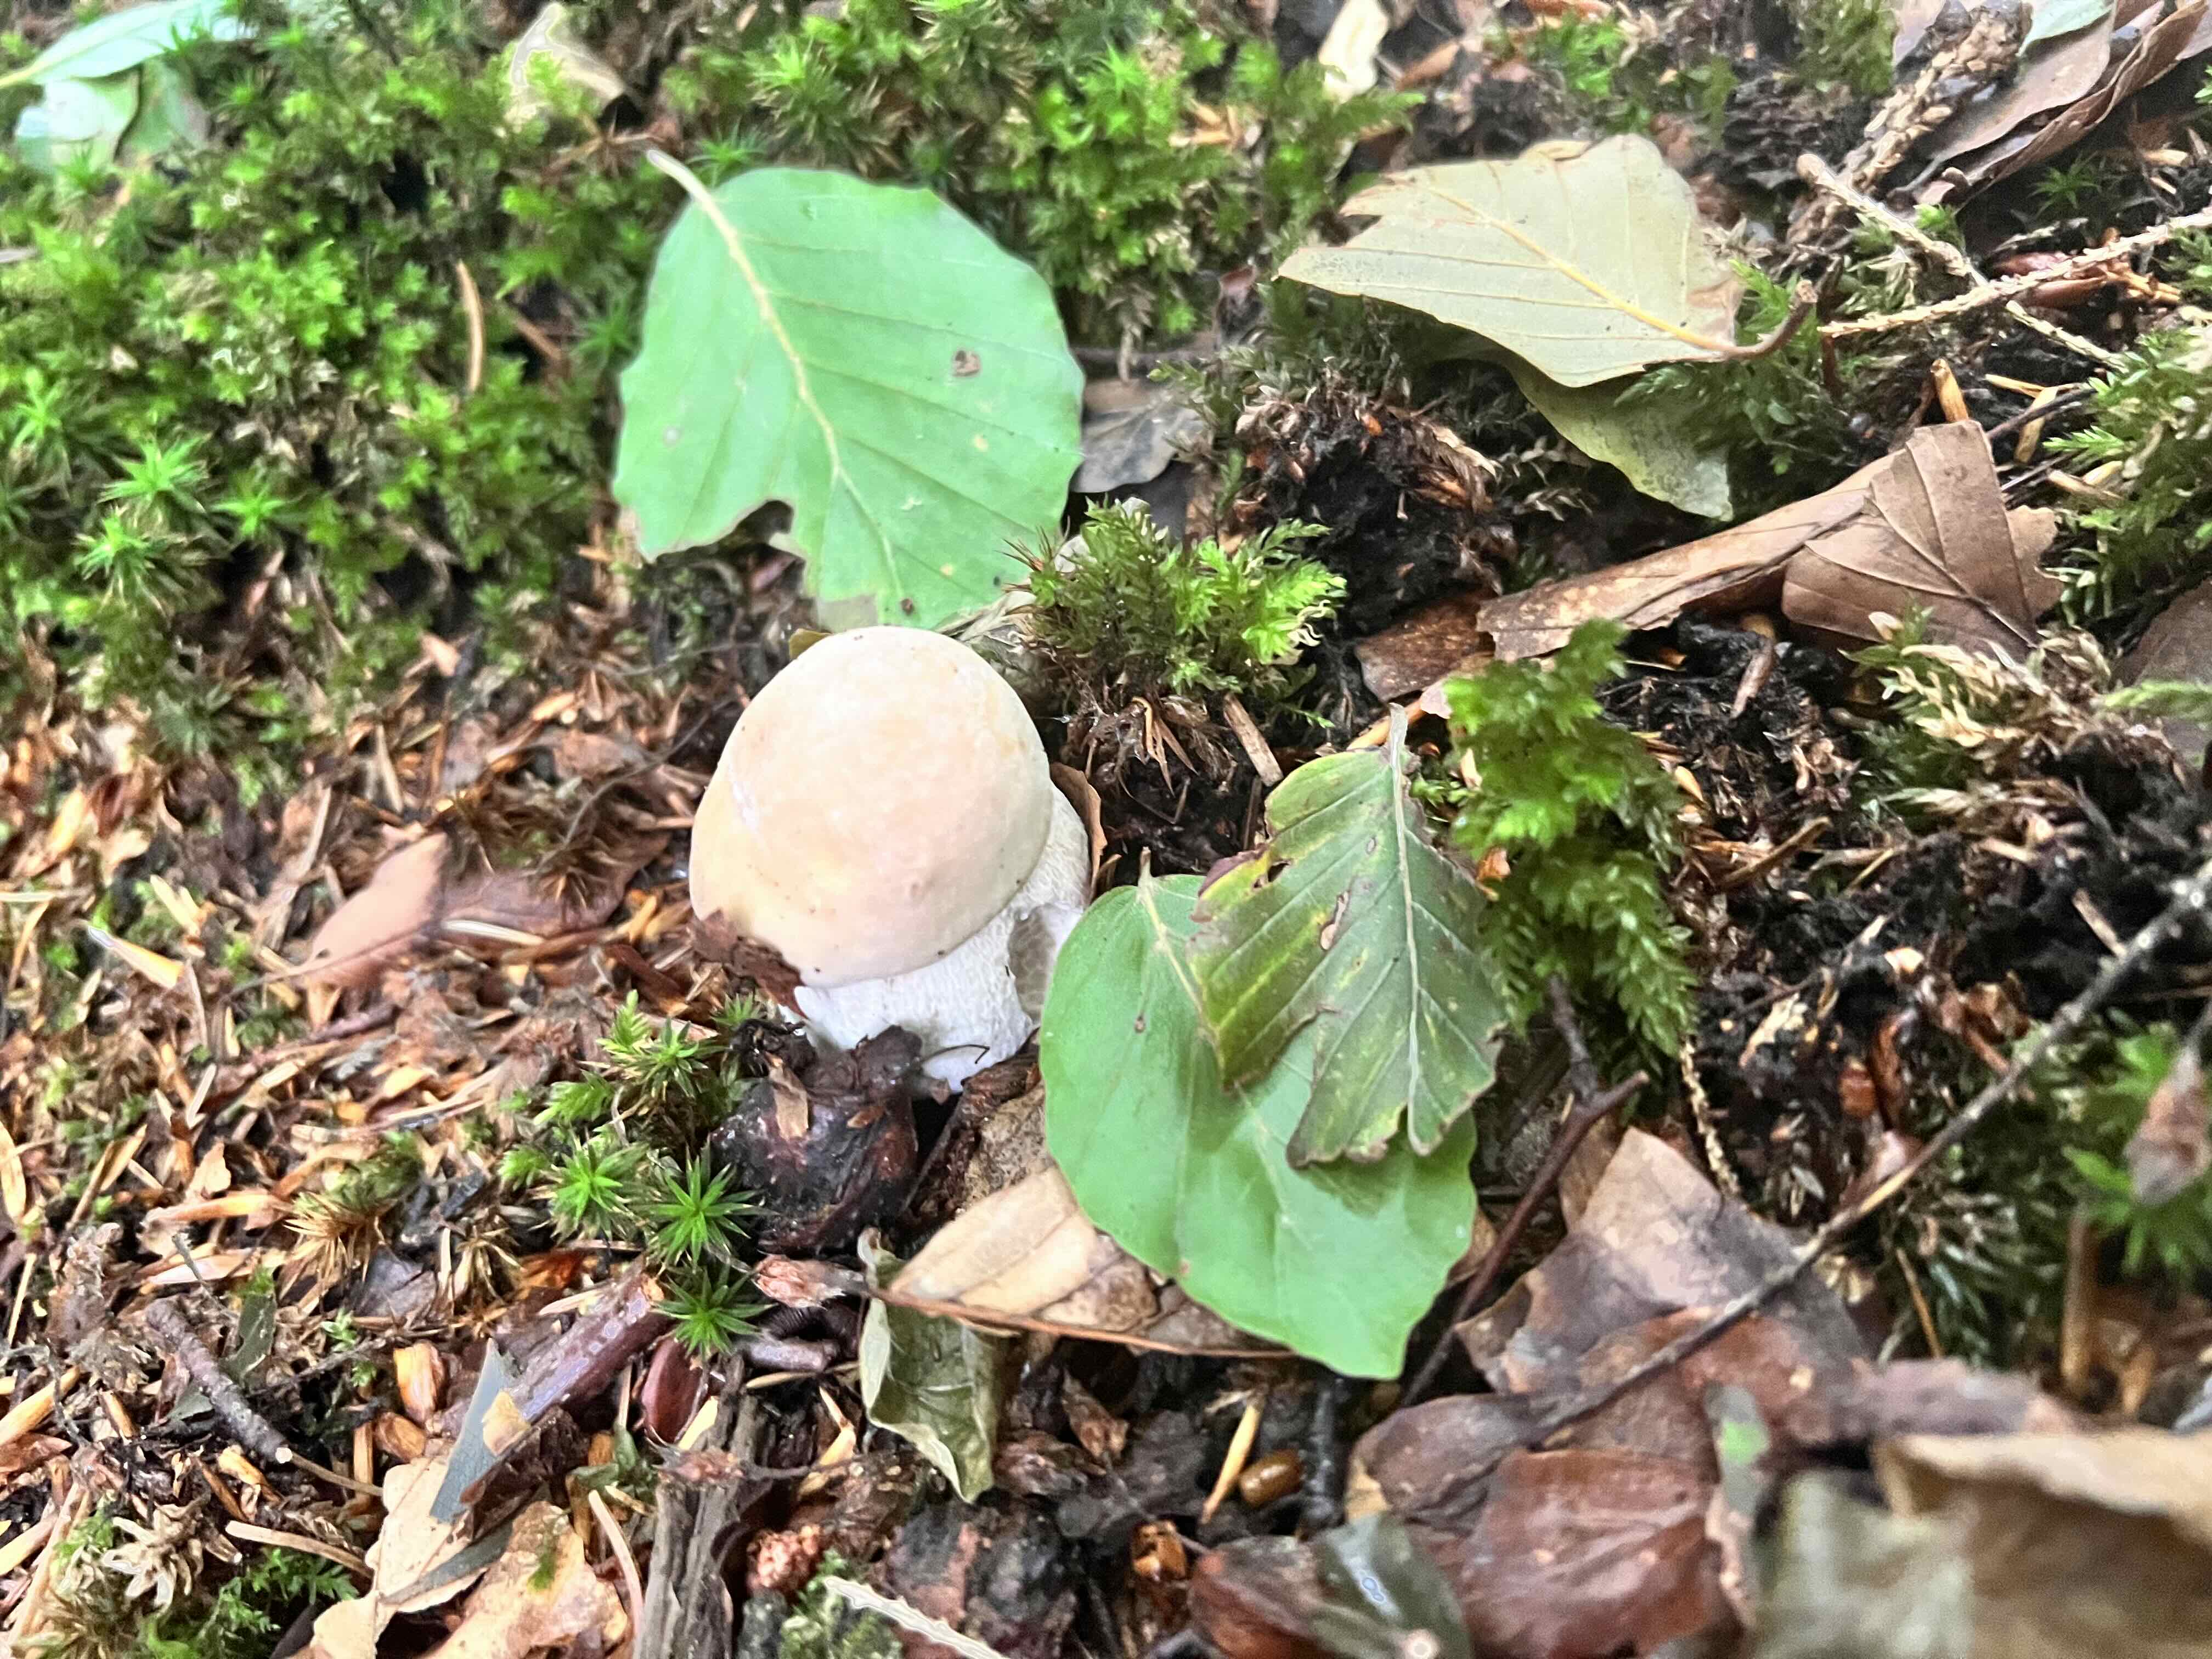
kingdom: Fungi
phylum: Basidiomycota
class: Agaricomycetes
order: Boletales
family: Boletaceae
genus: Boletus
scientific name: Boletus edulis
